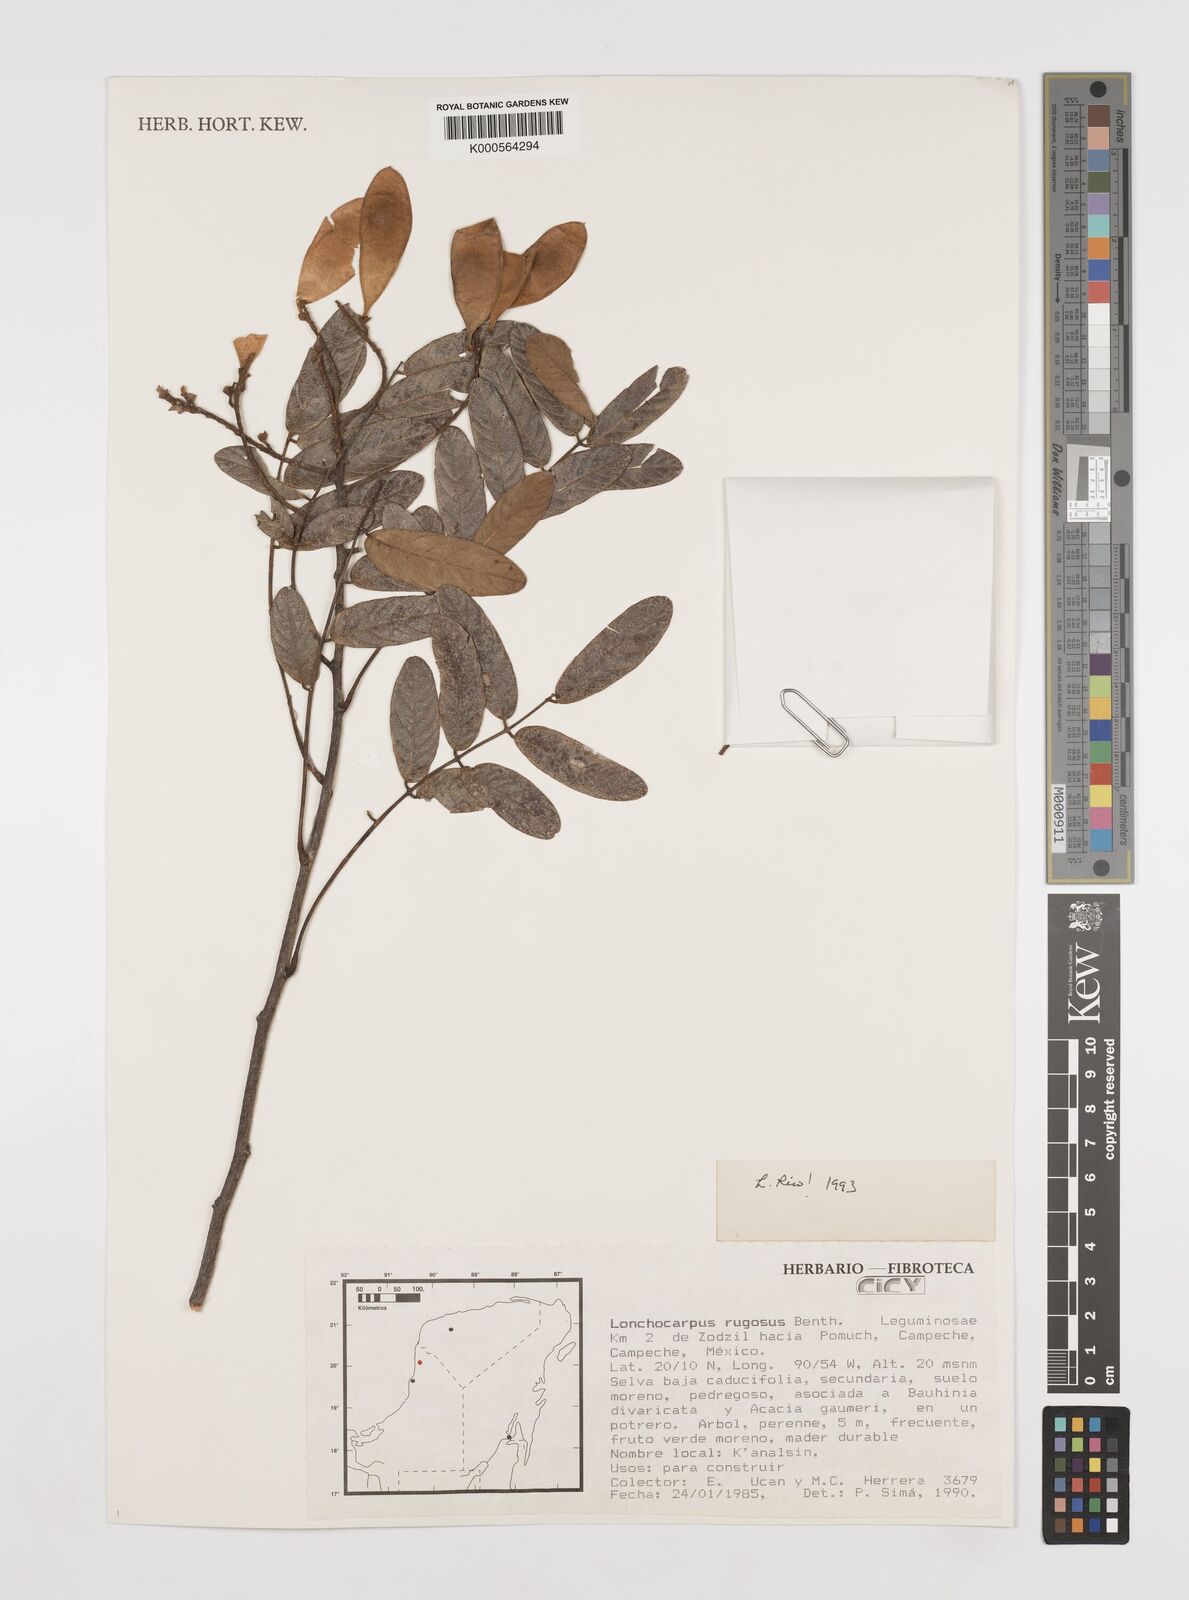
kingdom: Plantae
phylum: Tracheophyta
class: Magnoliopsida
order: Fabales
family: Fabaceae
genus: Lonchocarpus
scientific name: Lonchocarpus rugosus
